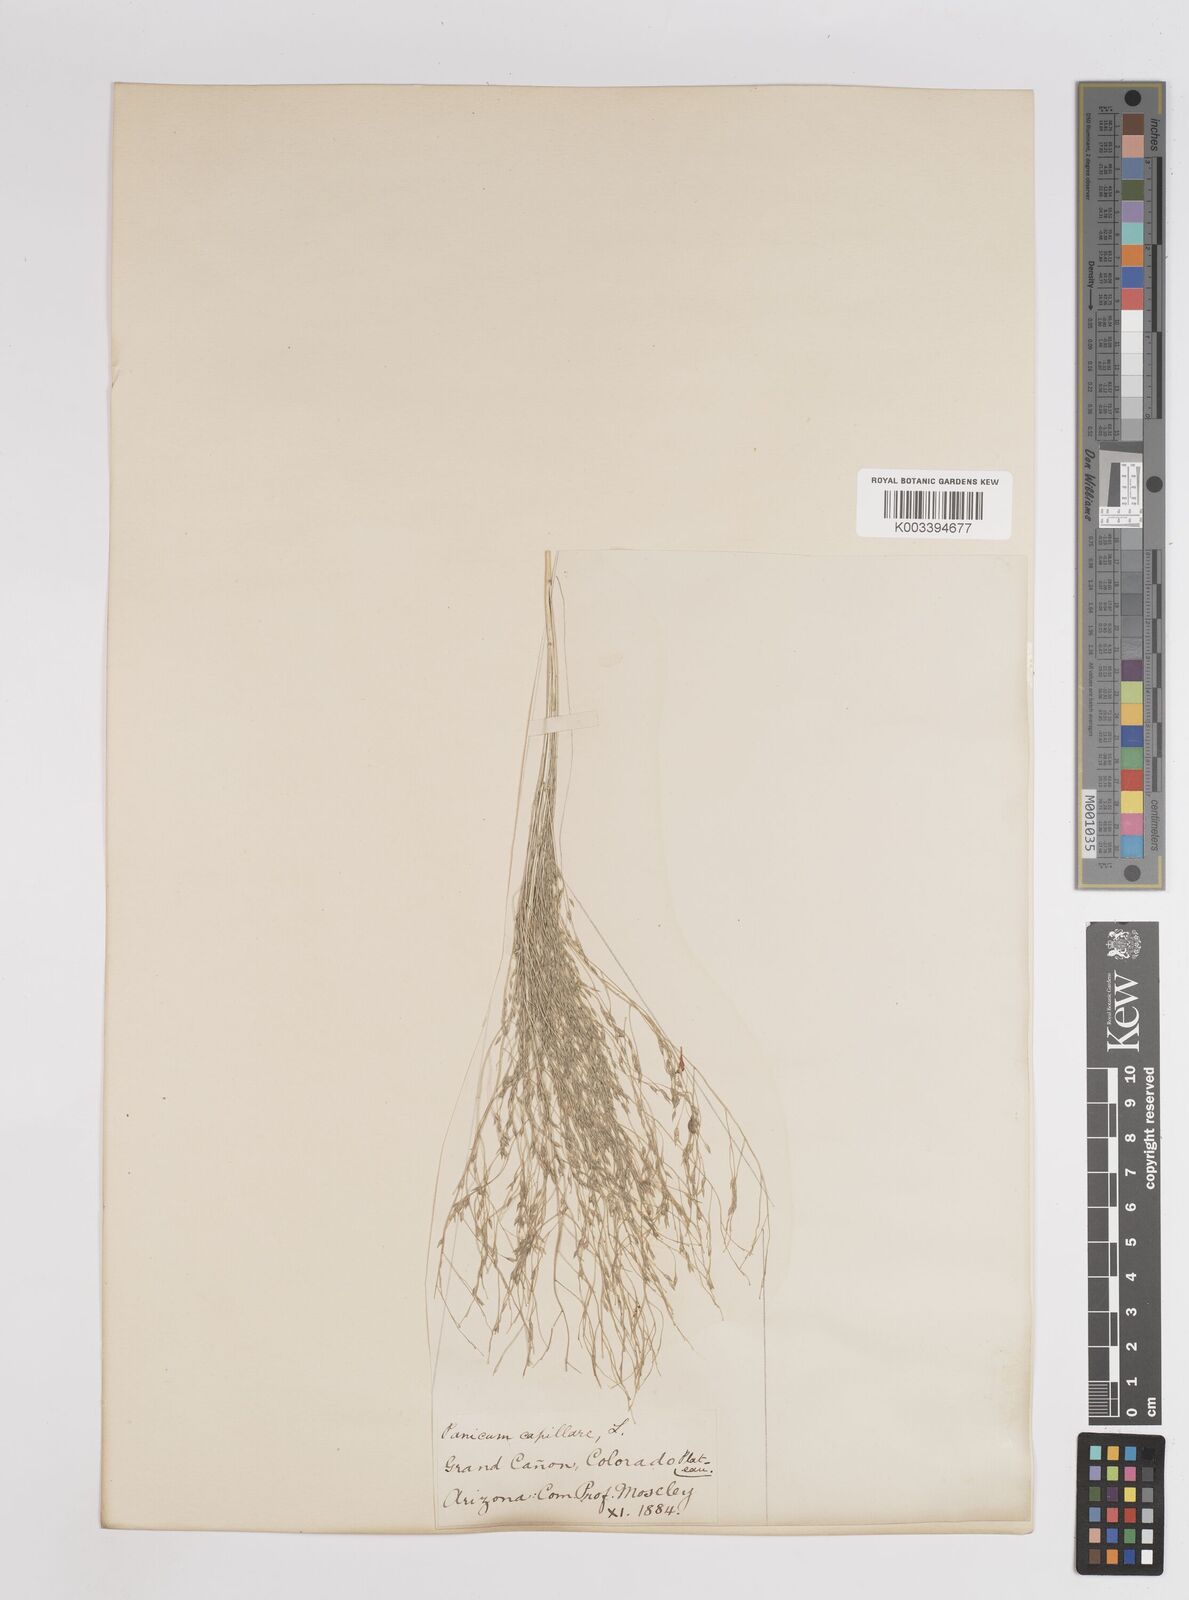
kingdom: Plantae
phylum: Tracheophyta
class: Liliopsida
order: Poales
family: Poaceae
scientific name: Poaceae
